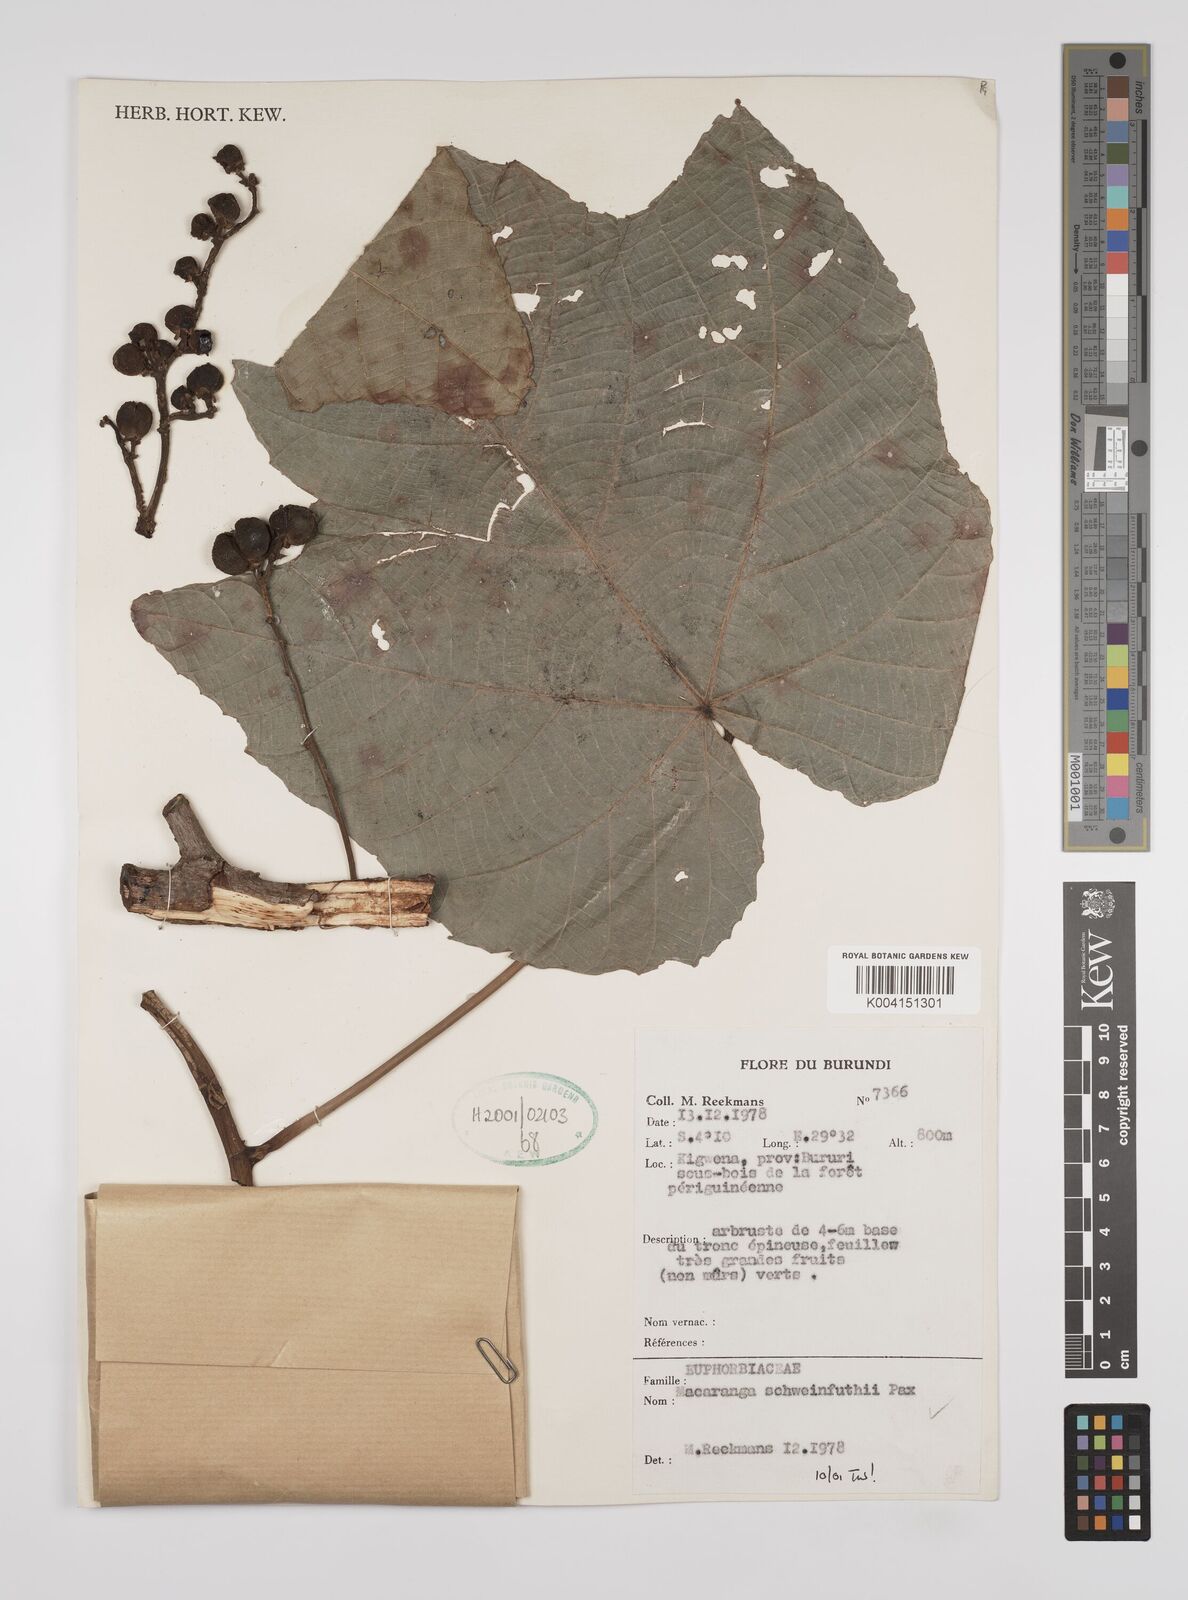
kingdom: Plantae
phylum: Tracheophyta
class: Magnoliopsida
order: Malpighiales
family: Euphorbiaceae
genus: Macaranga
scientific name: Macaranga schweinfurthii
